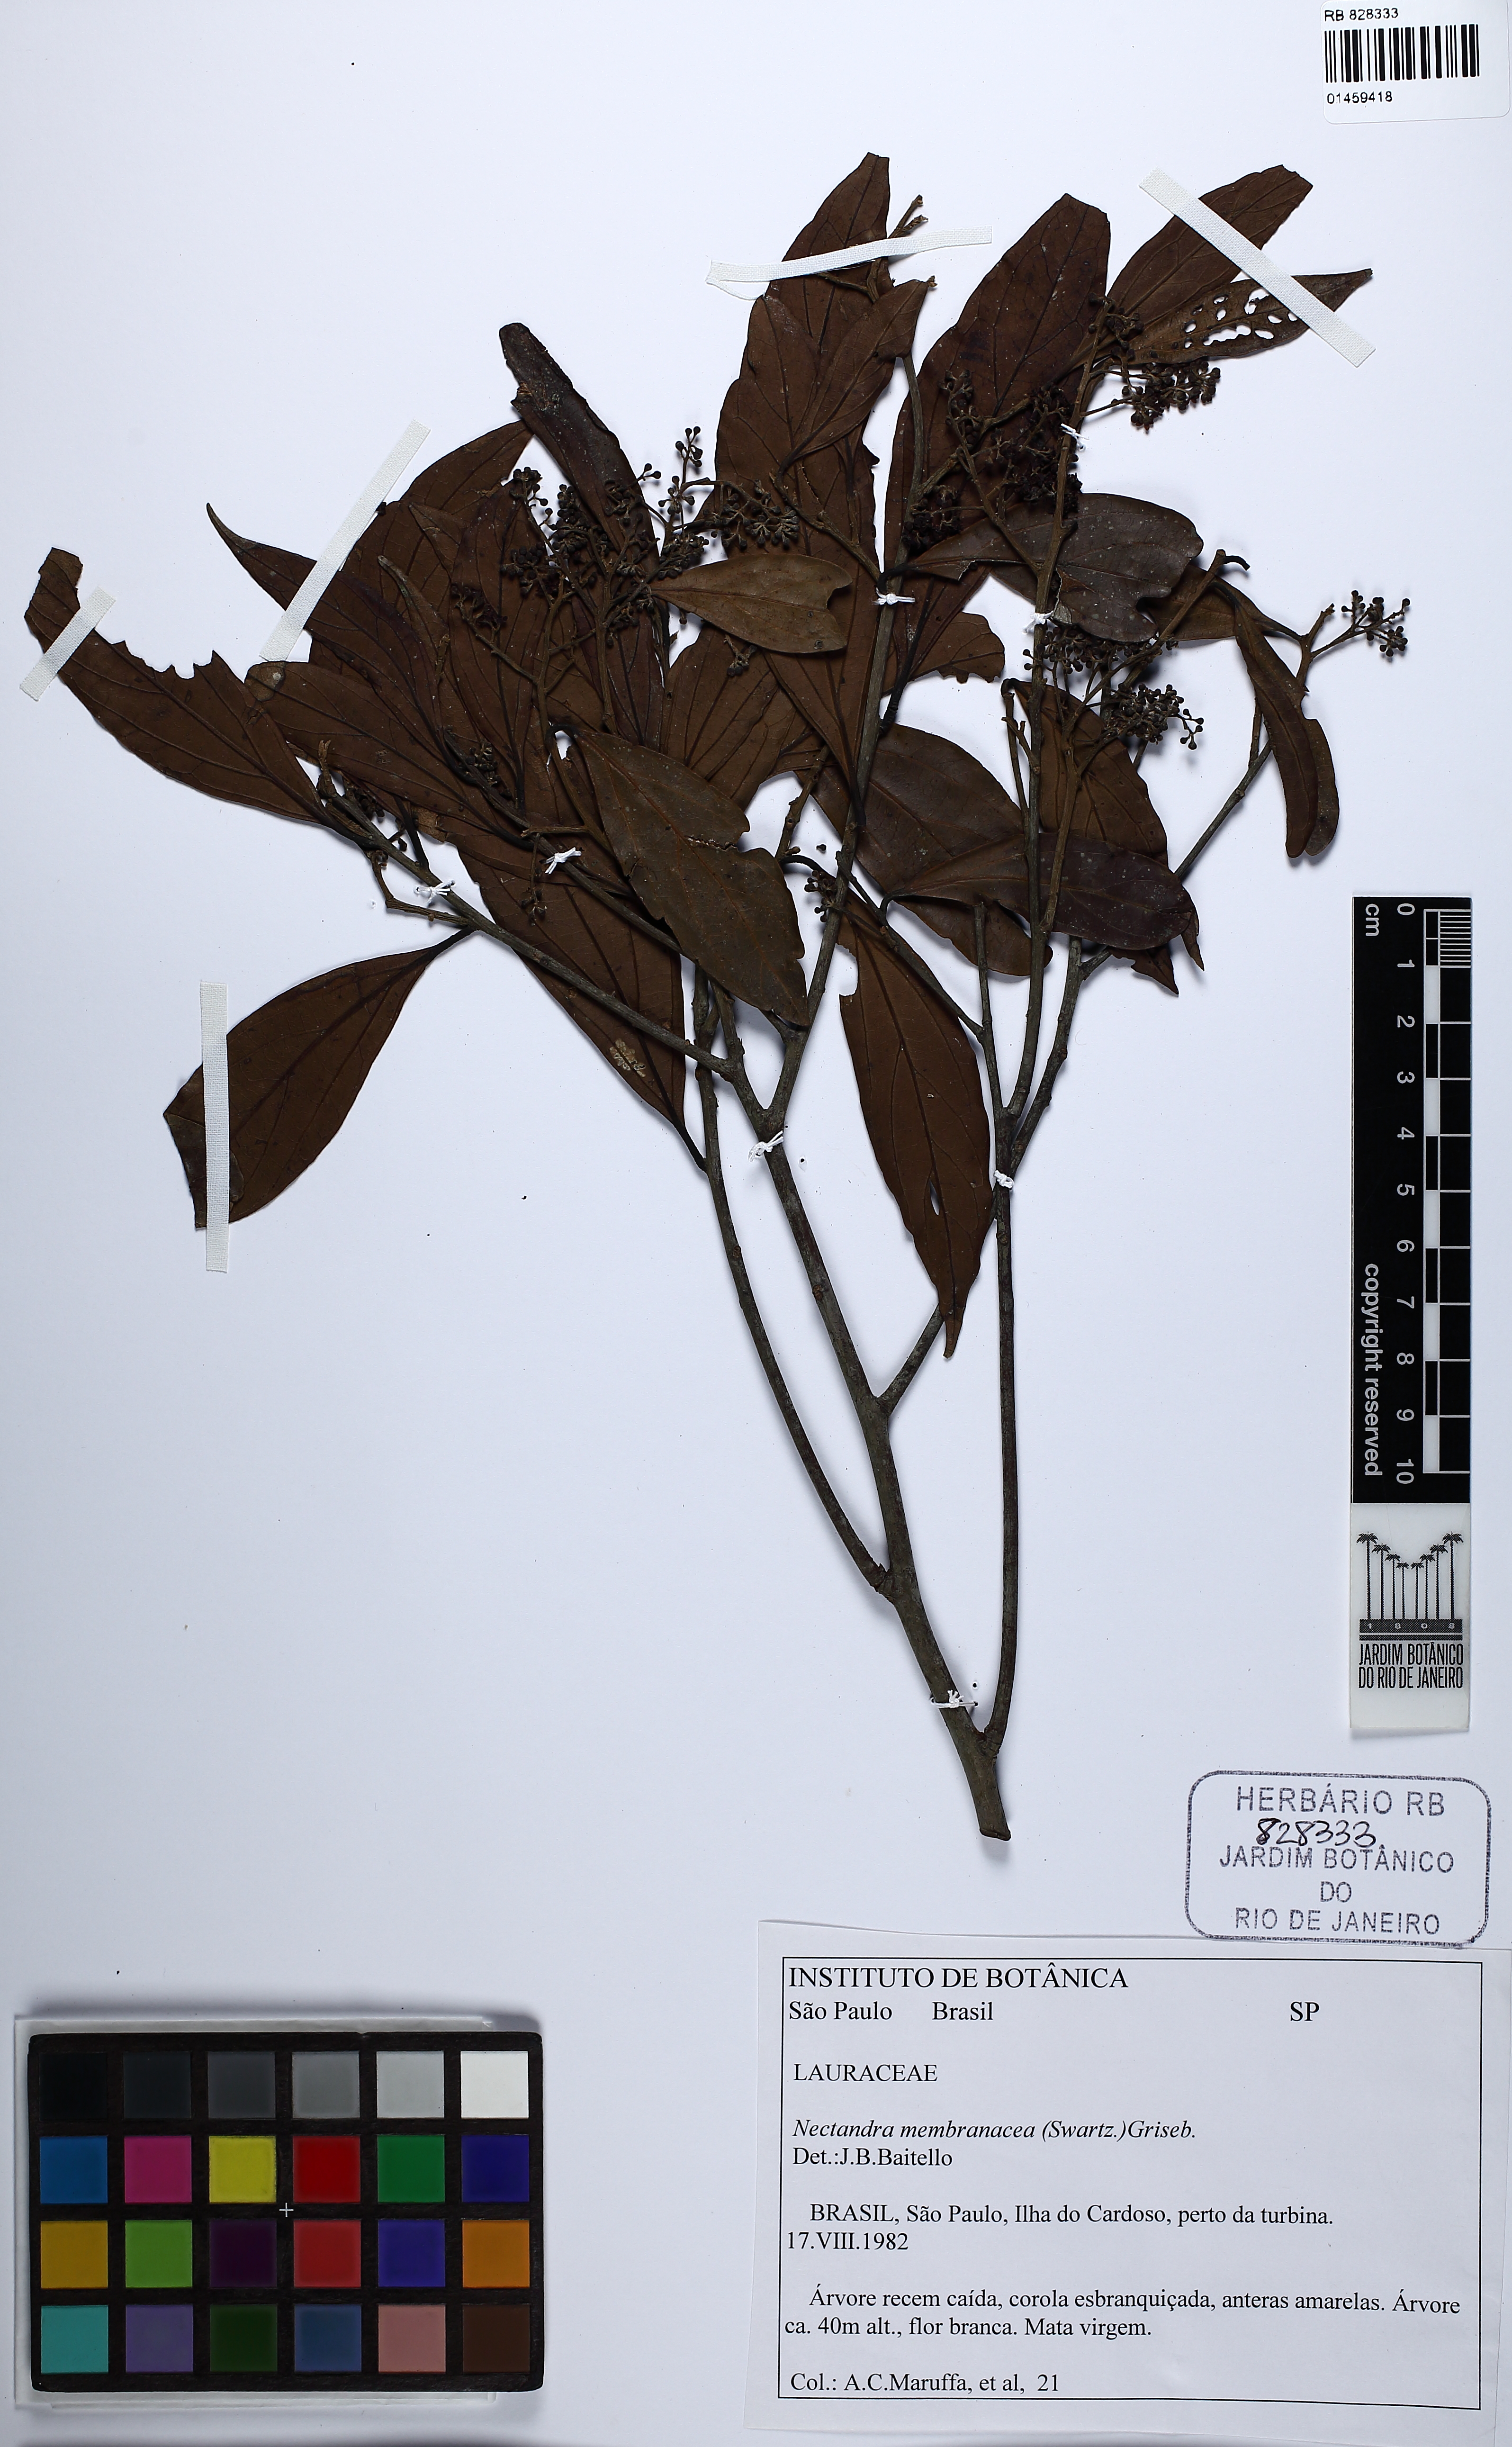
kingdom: Plantae
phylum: Tracheophyta
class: Magnoliopsida
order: Laurales
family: Lauraceae
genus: Nectandra
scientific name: Nectandra membranacea
